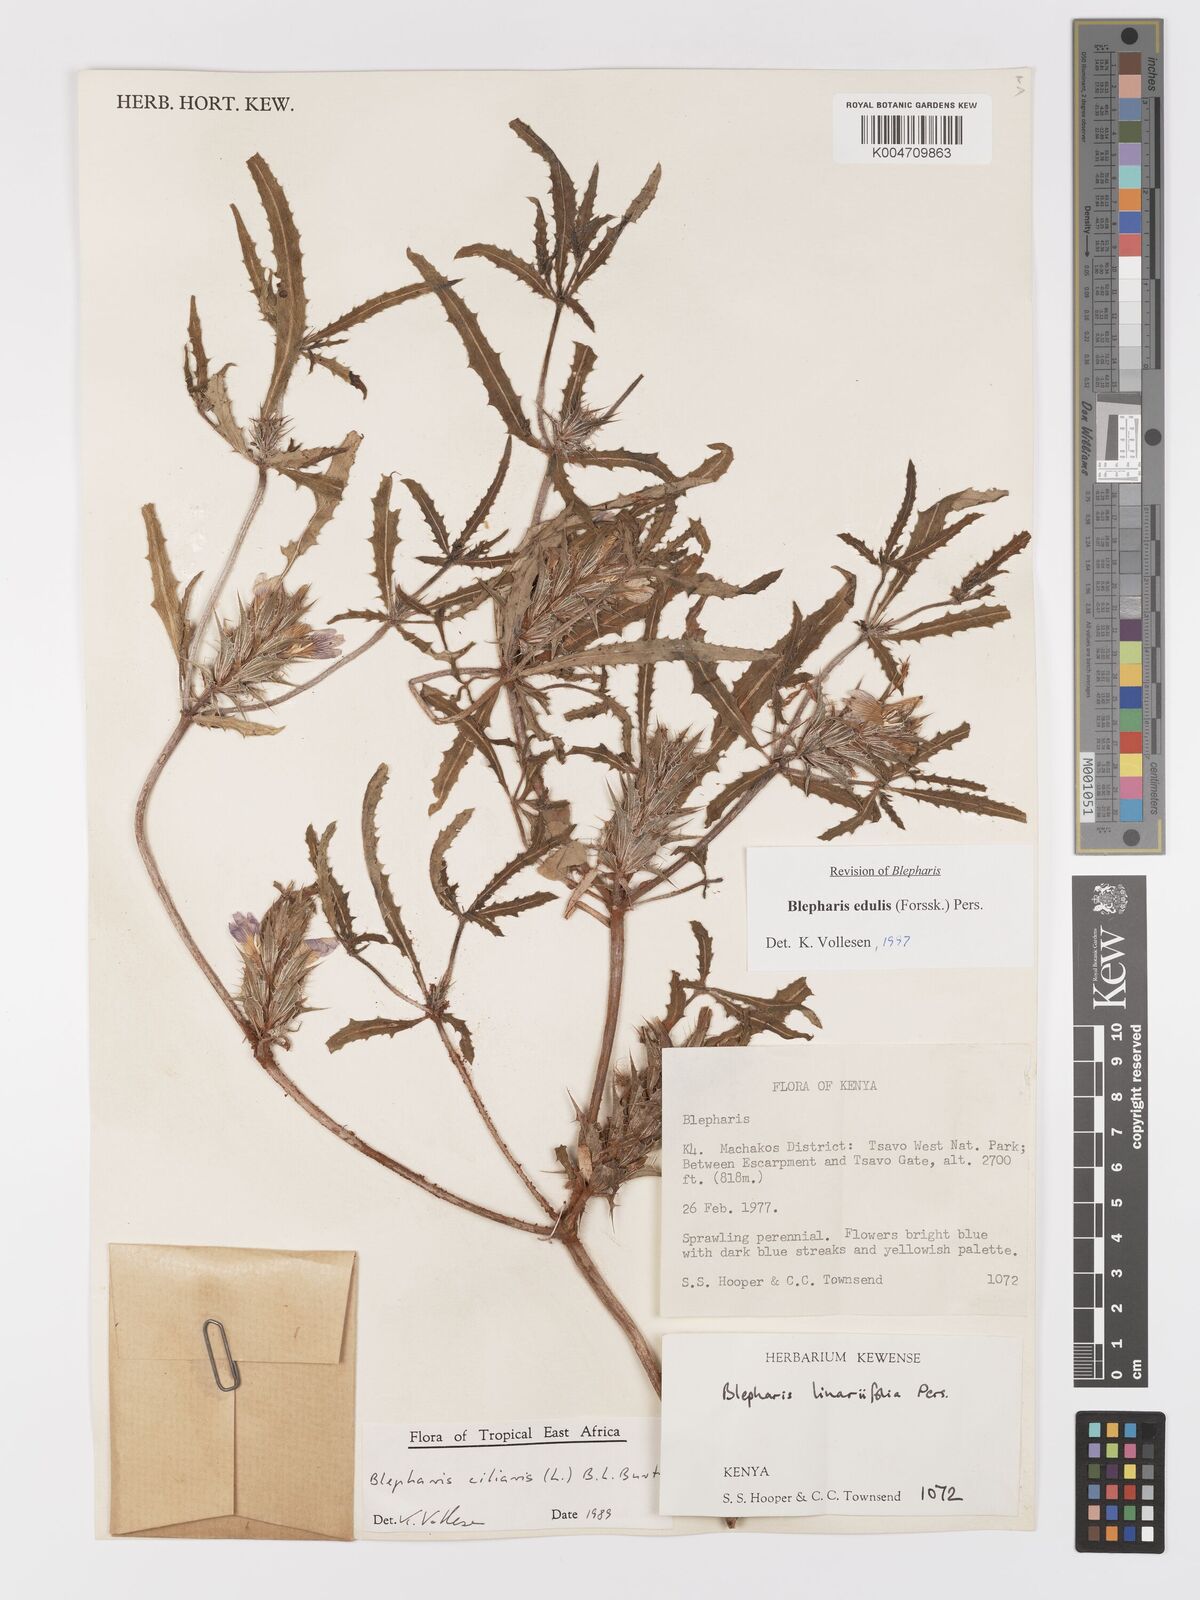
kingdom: Plantae
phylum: Tracheophyta
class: Magnoliopsida
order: Lamiales
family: Acanthaceae
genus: Blepharis
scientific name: Blepharis edulis
